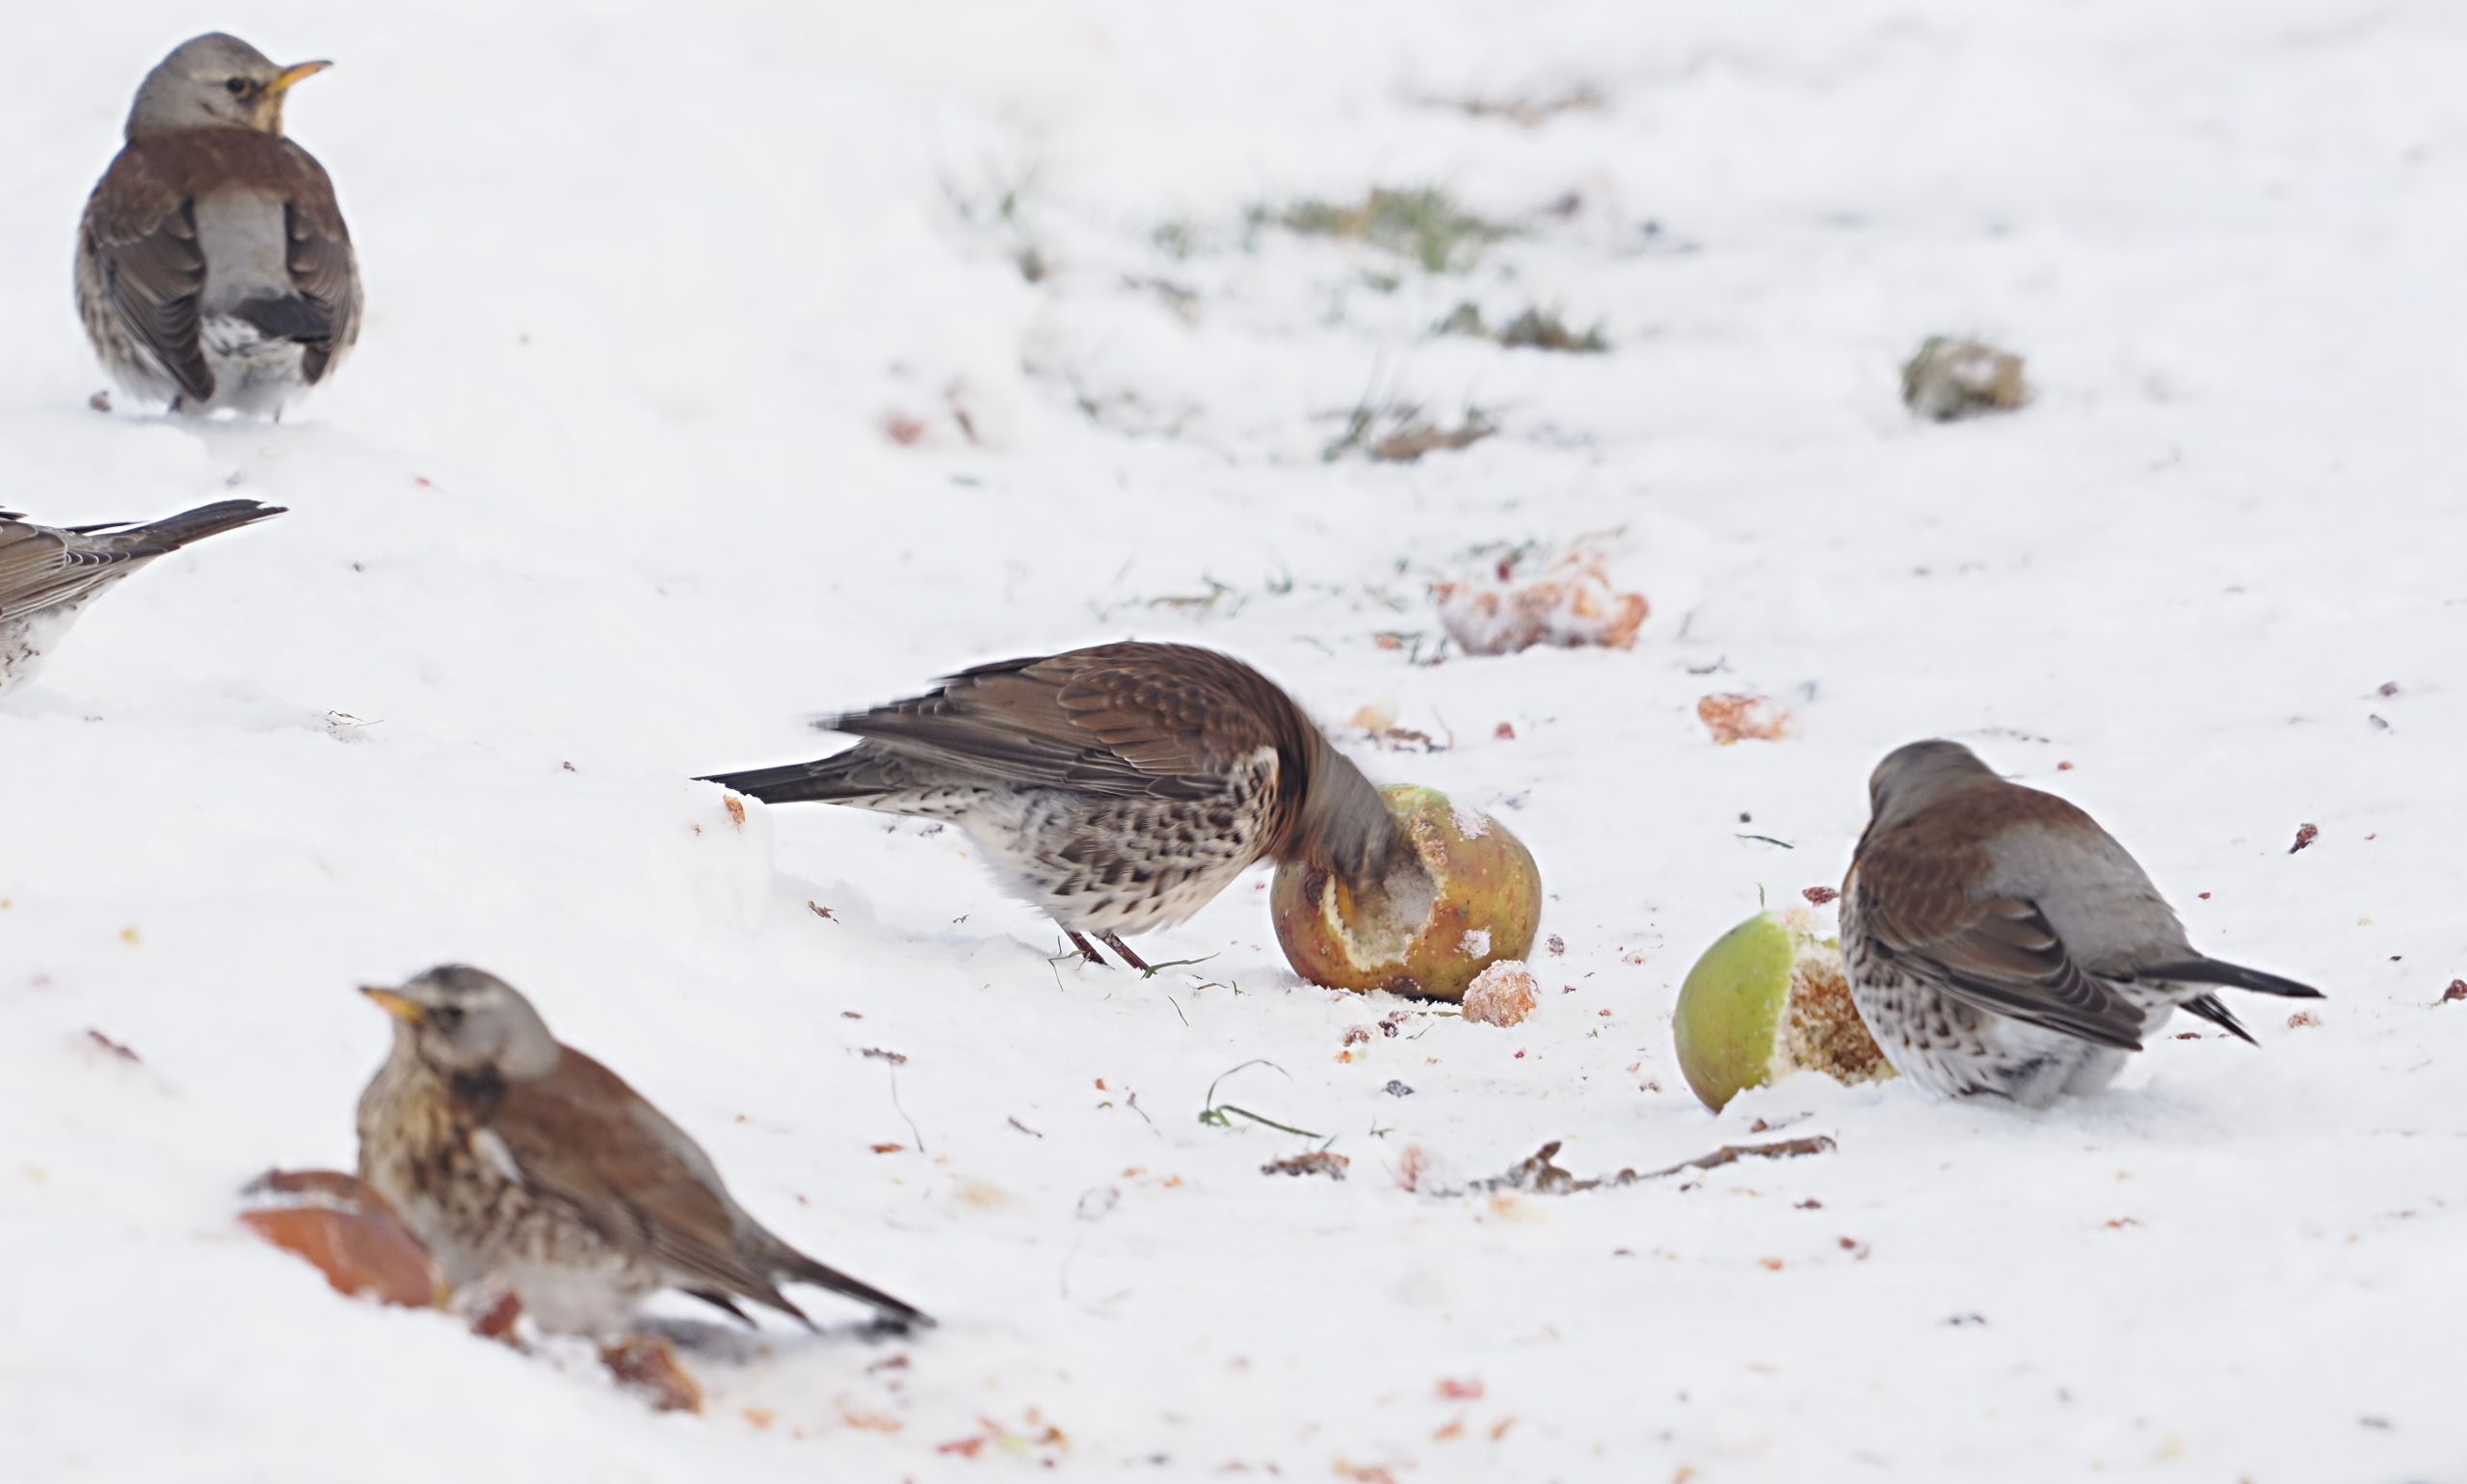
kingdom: Animalia
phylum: Chordata
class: Aves
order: Passeriformes
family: Turdidae
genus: Turdus
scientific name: Turdus pilaris
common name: Sjagger
